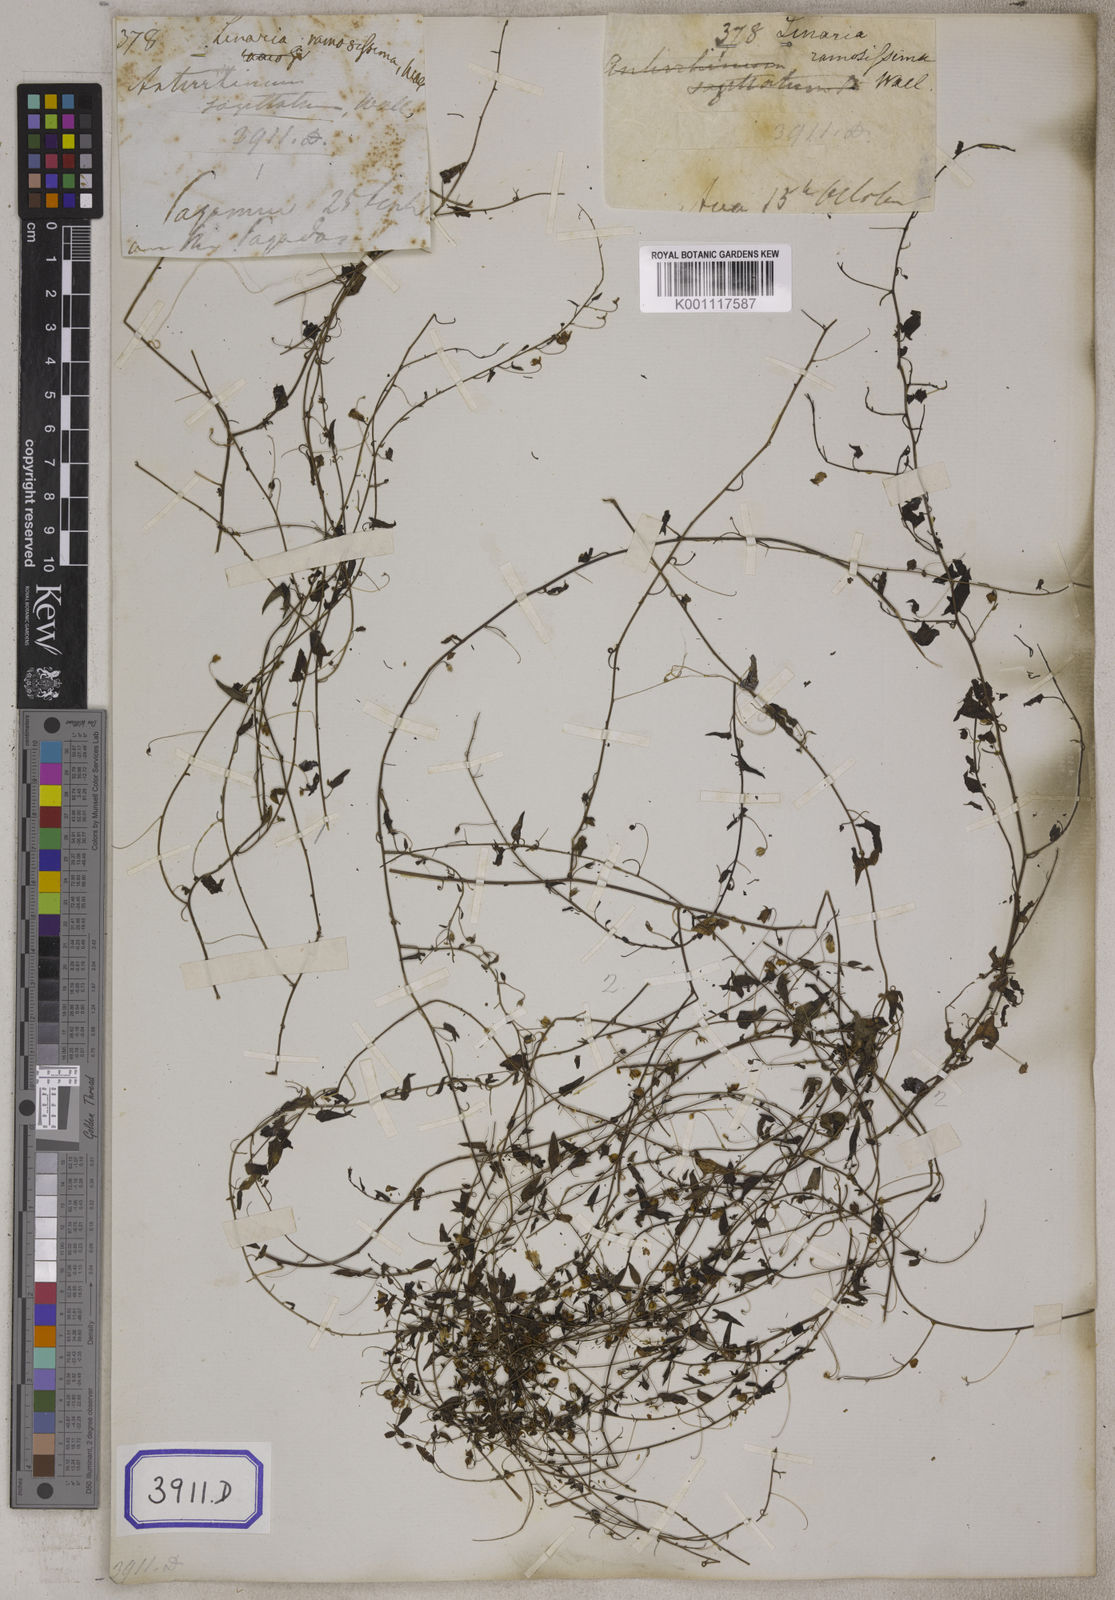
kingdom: Plantae
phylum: Tracheophyta
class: Magnoliopsida
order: Lamiales
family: Plantaginaceae
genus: Nanorrhinum
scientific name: Nanorrhinum ramosissimum
